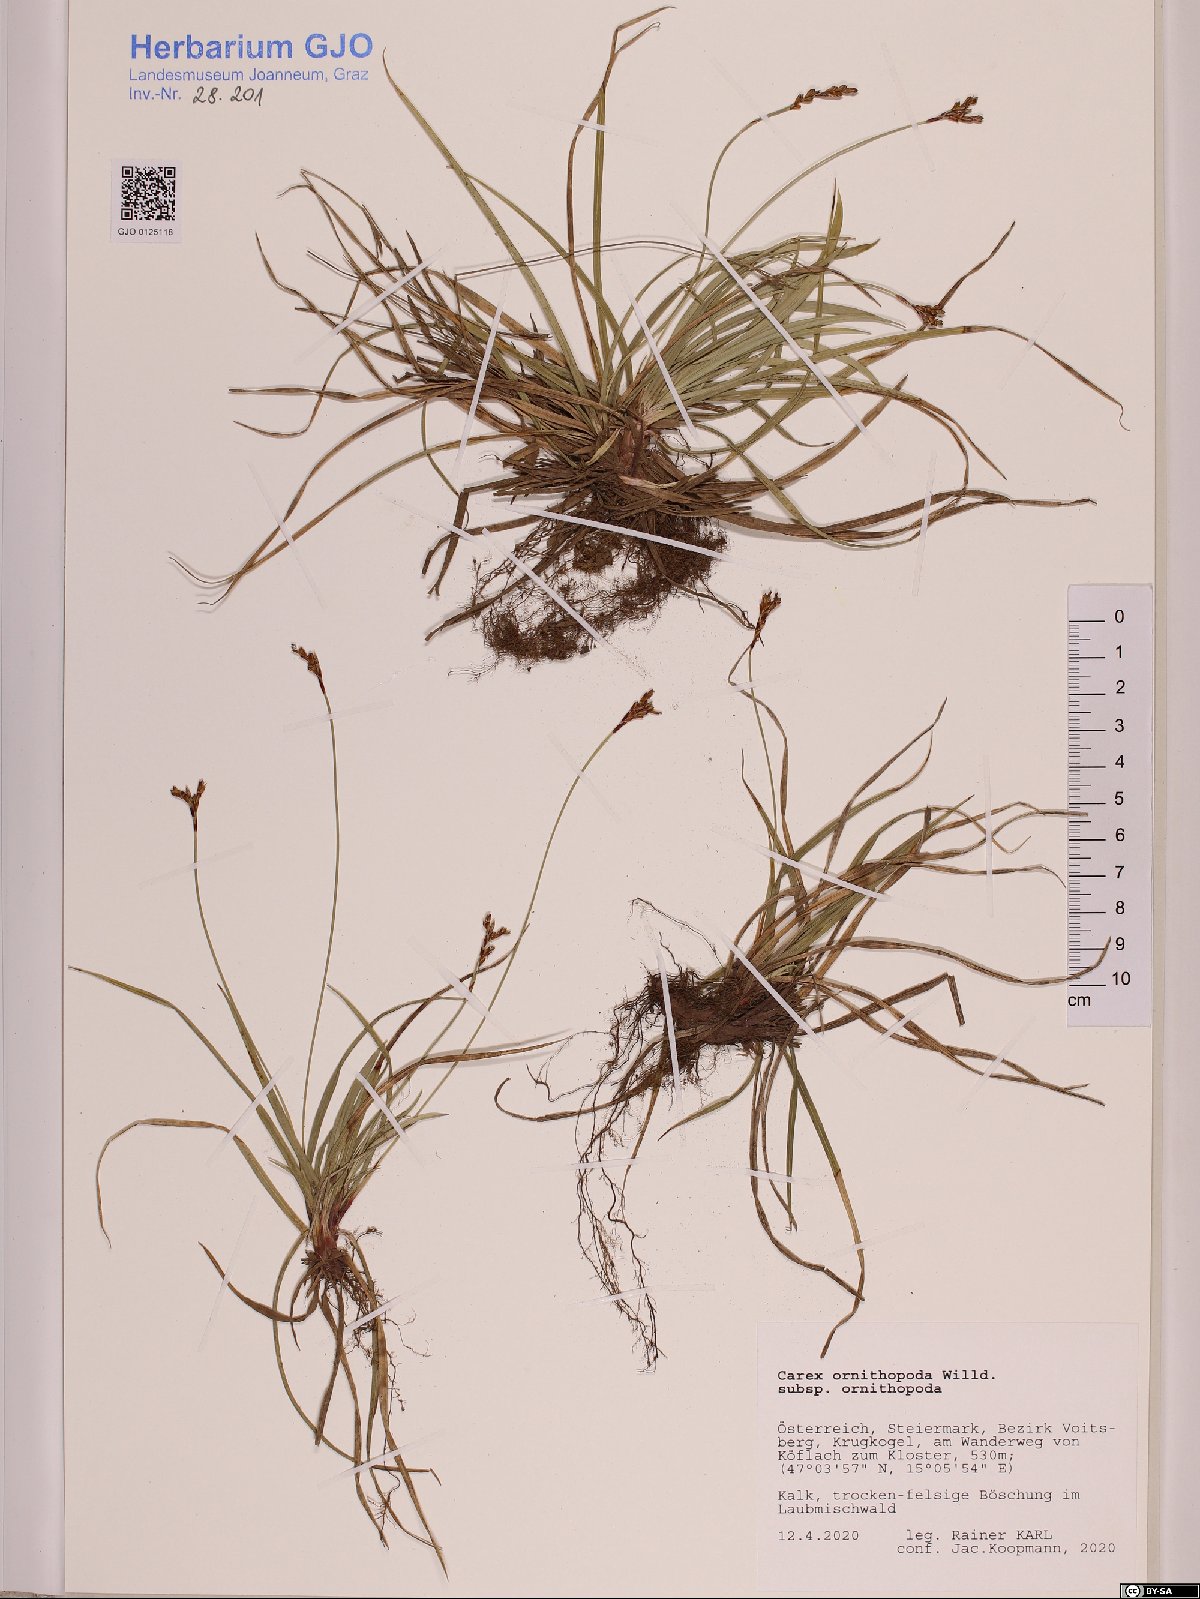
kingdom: Plantae
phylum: Tracheophyta
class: Liliopsida
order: Poales
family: Cyperaceae
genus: Carex
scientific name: Carex ornithopoda
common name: Bird's-foot sedge
